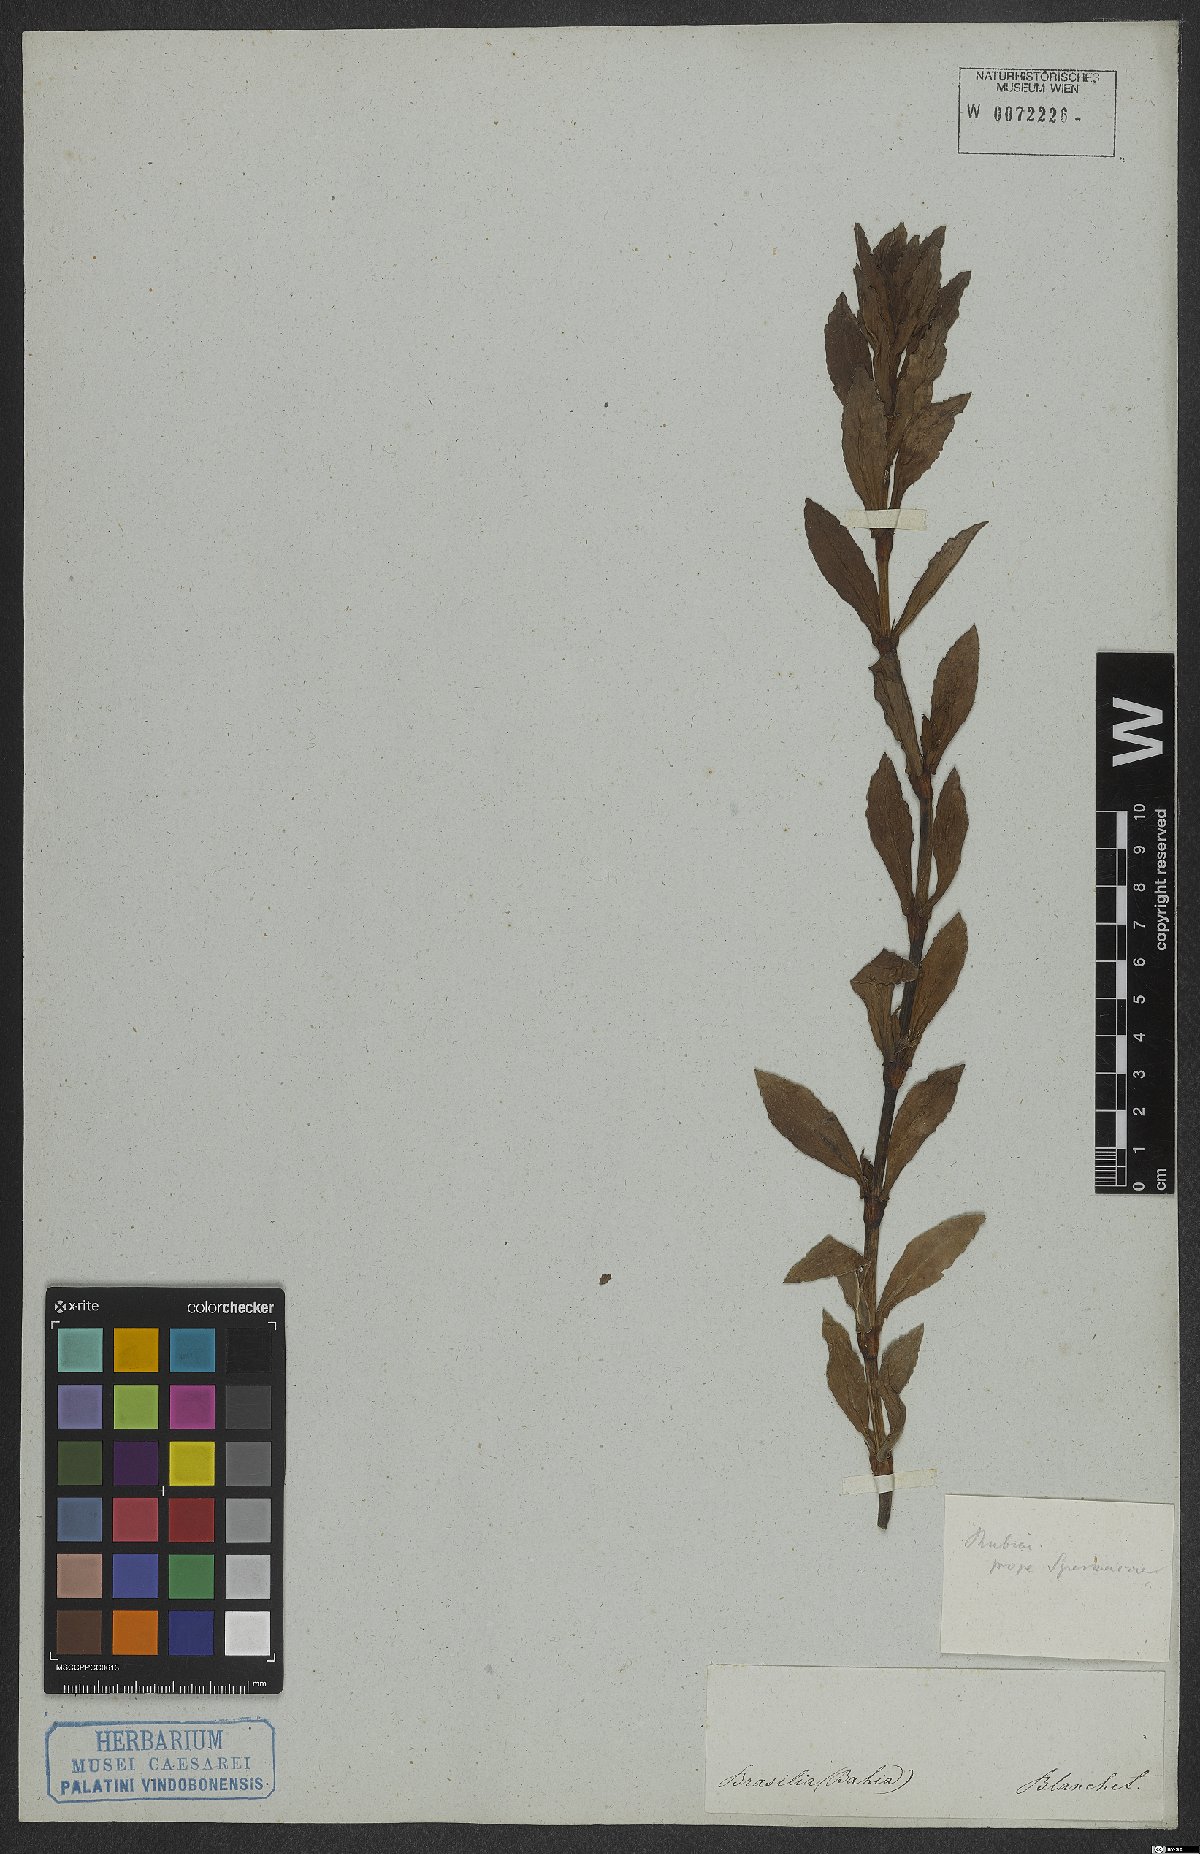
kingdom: Plantae
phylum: Tracheophyta
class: Magnoliopsida
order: Gentianales
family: Rubiaceae
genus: Diodia
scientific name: Diodia saponariifolia
